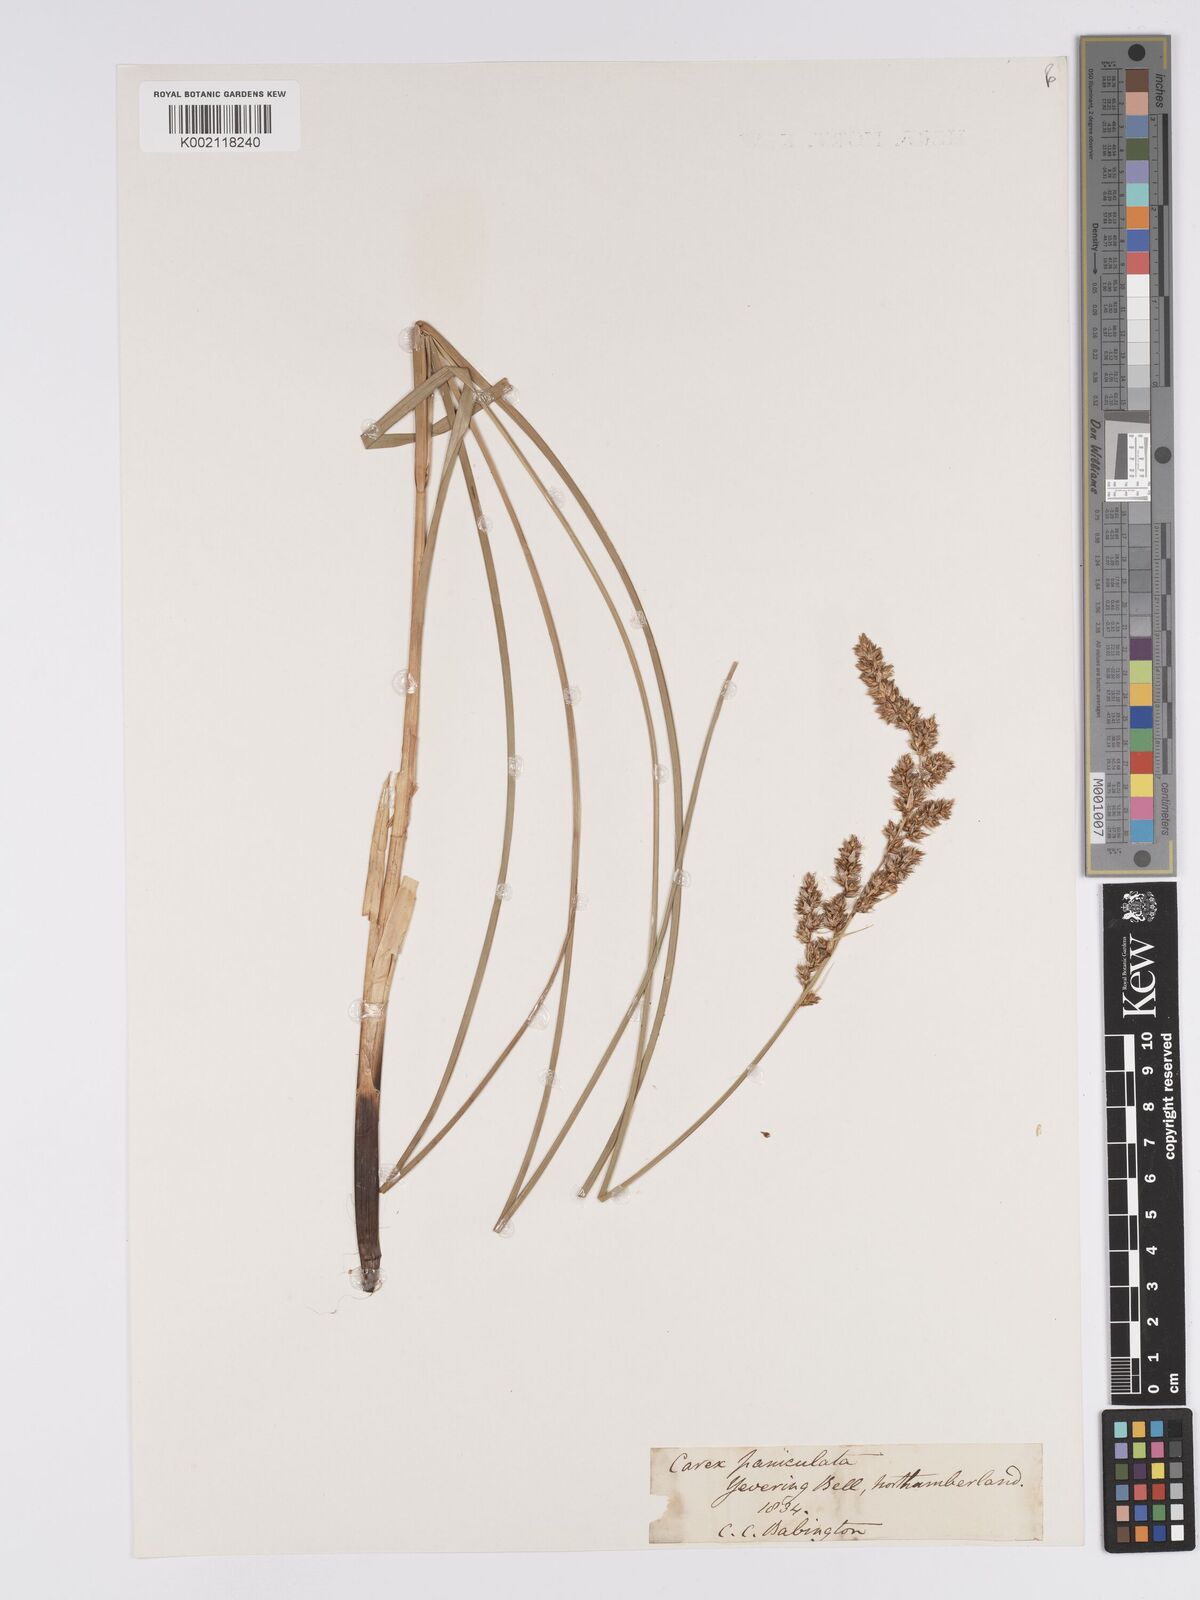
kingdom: Plantae
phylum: Tracheophyta
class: Liliopsida
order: Poales
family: Cyperaceae
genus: Carex
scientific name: Carex paniculata
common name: Greater tussock-sedge
